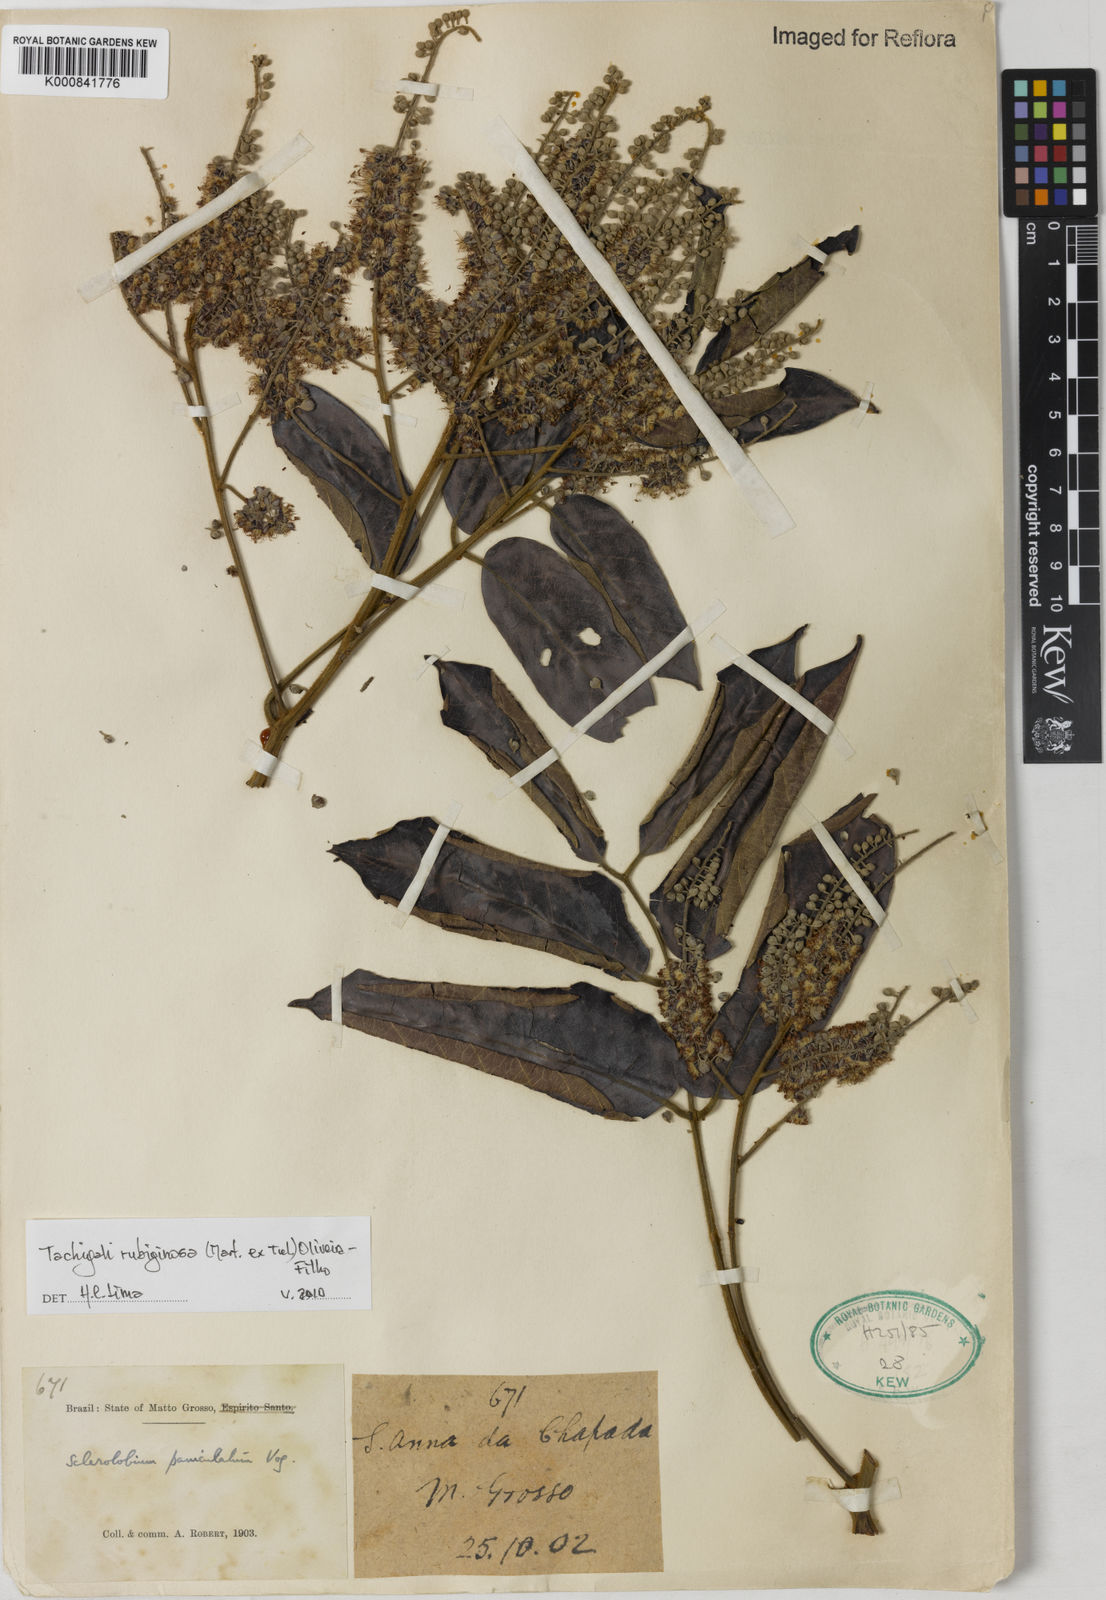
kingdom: Plantae
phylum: Tracheophyta
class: Magnoliopsida
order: Fabales
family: Fabaceae
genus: Tachigali
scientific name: Tachigali rubiginosa
